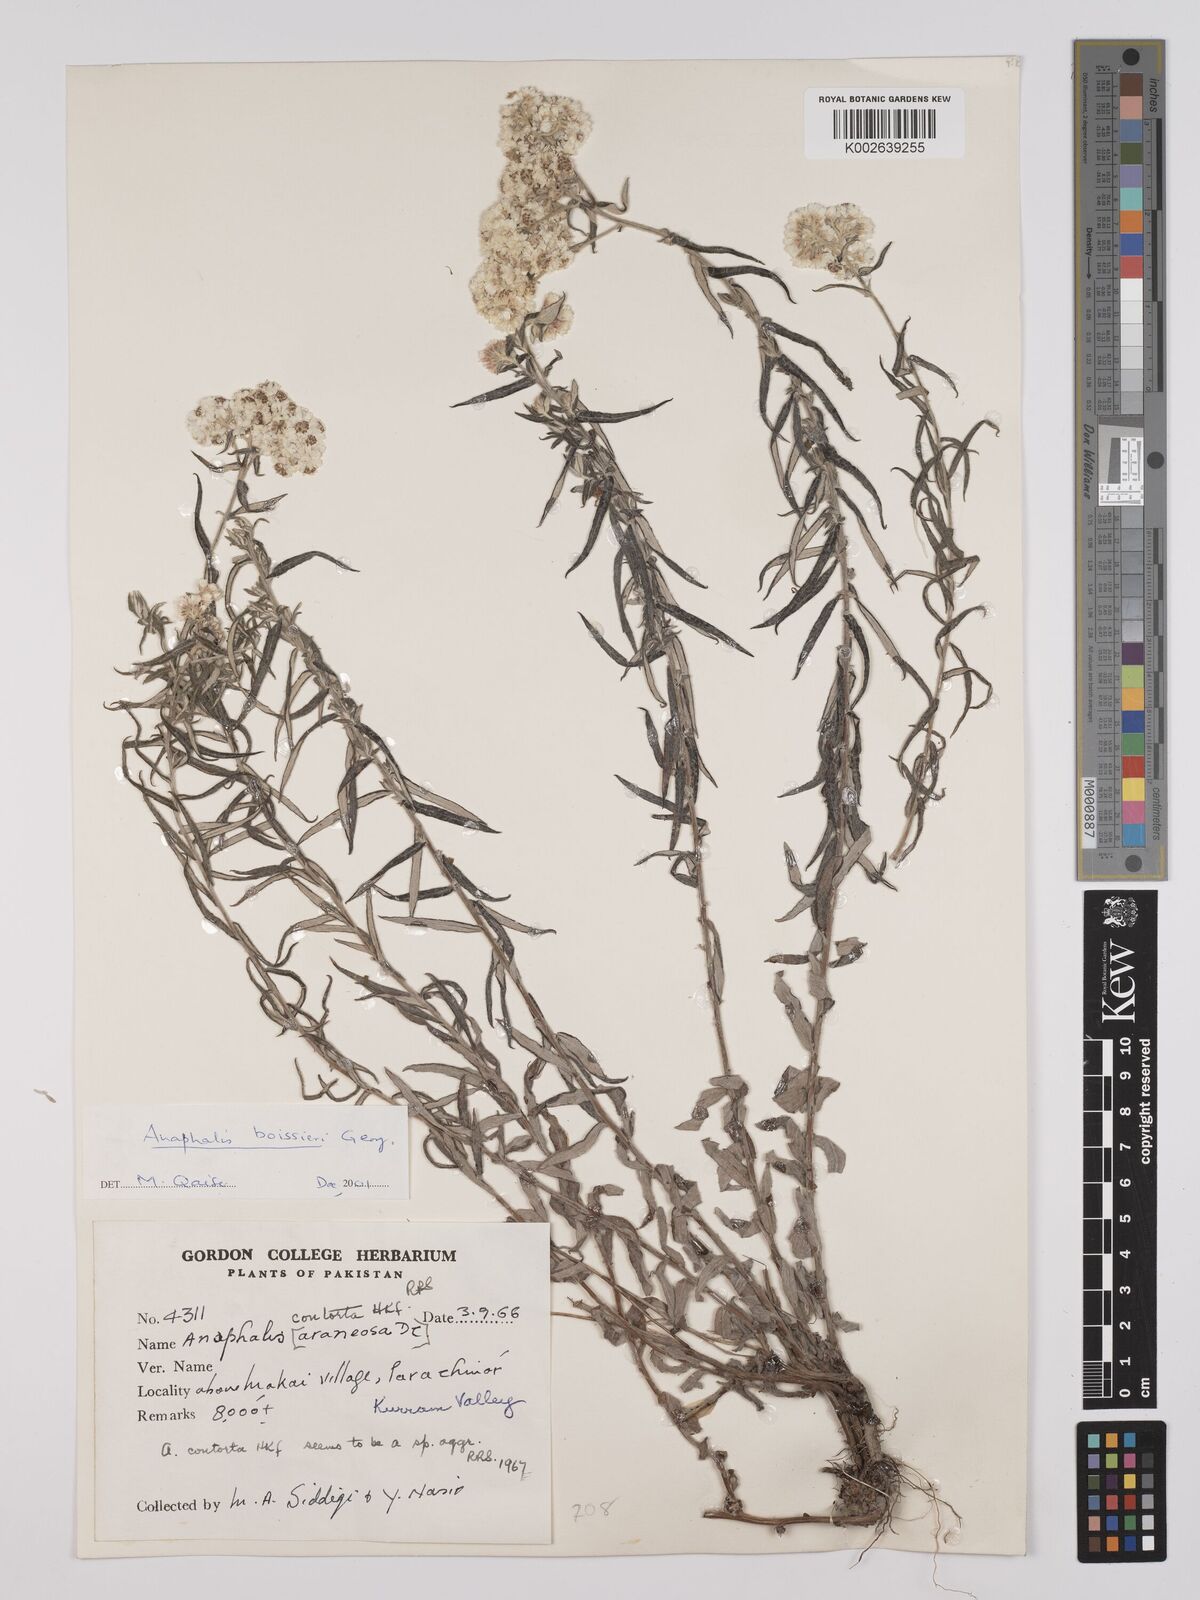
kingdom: Plantae
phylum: Tracheophyta
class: Magnoliopsida
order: Asterales
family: Asteraceae
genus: Anaphalis
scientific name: Anaphalis
